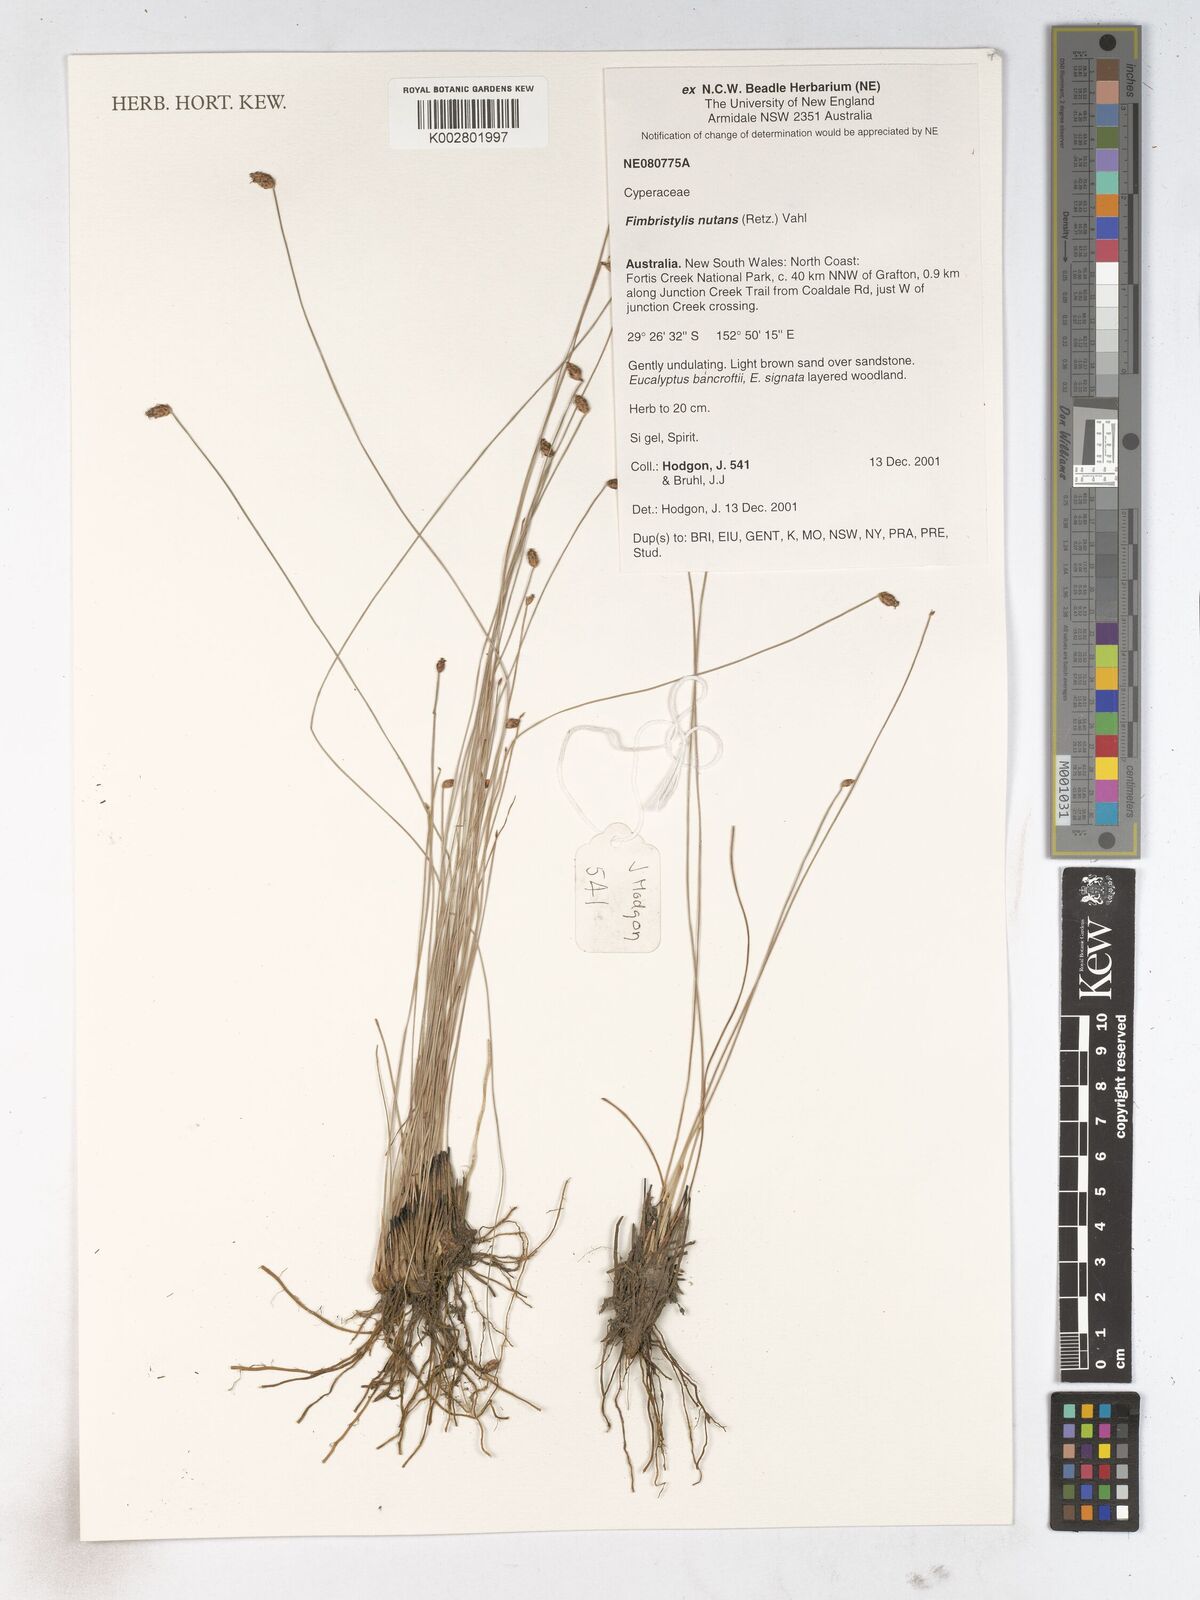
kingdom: Plantae
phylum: Tracheophyta
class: Liliopsida
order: Poales
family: Cyperaceae
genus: Fimbristylis
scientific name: Fimbristylis nutans
